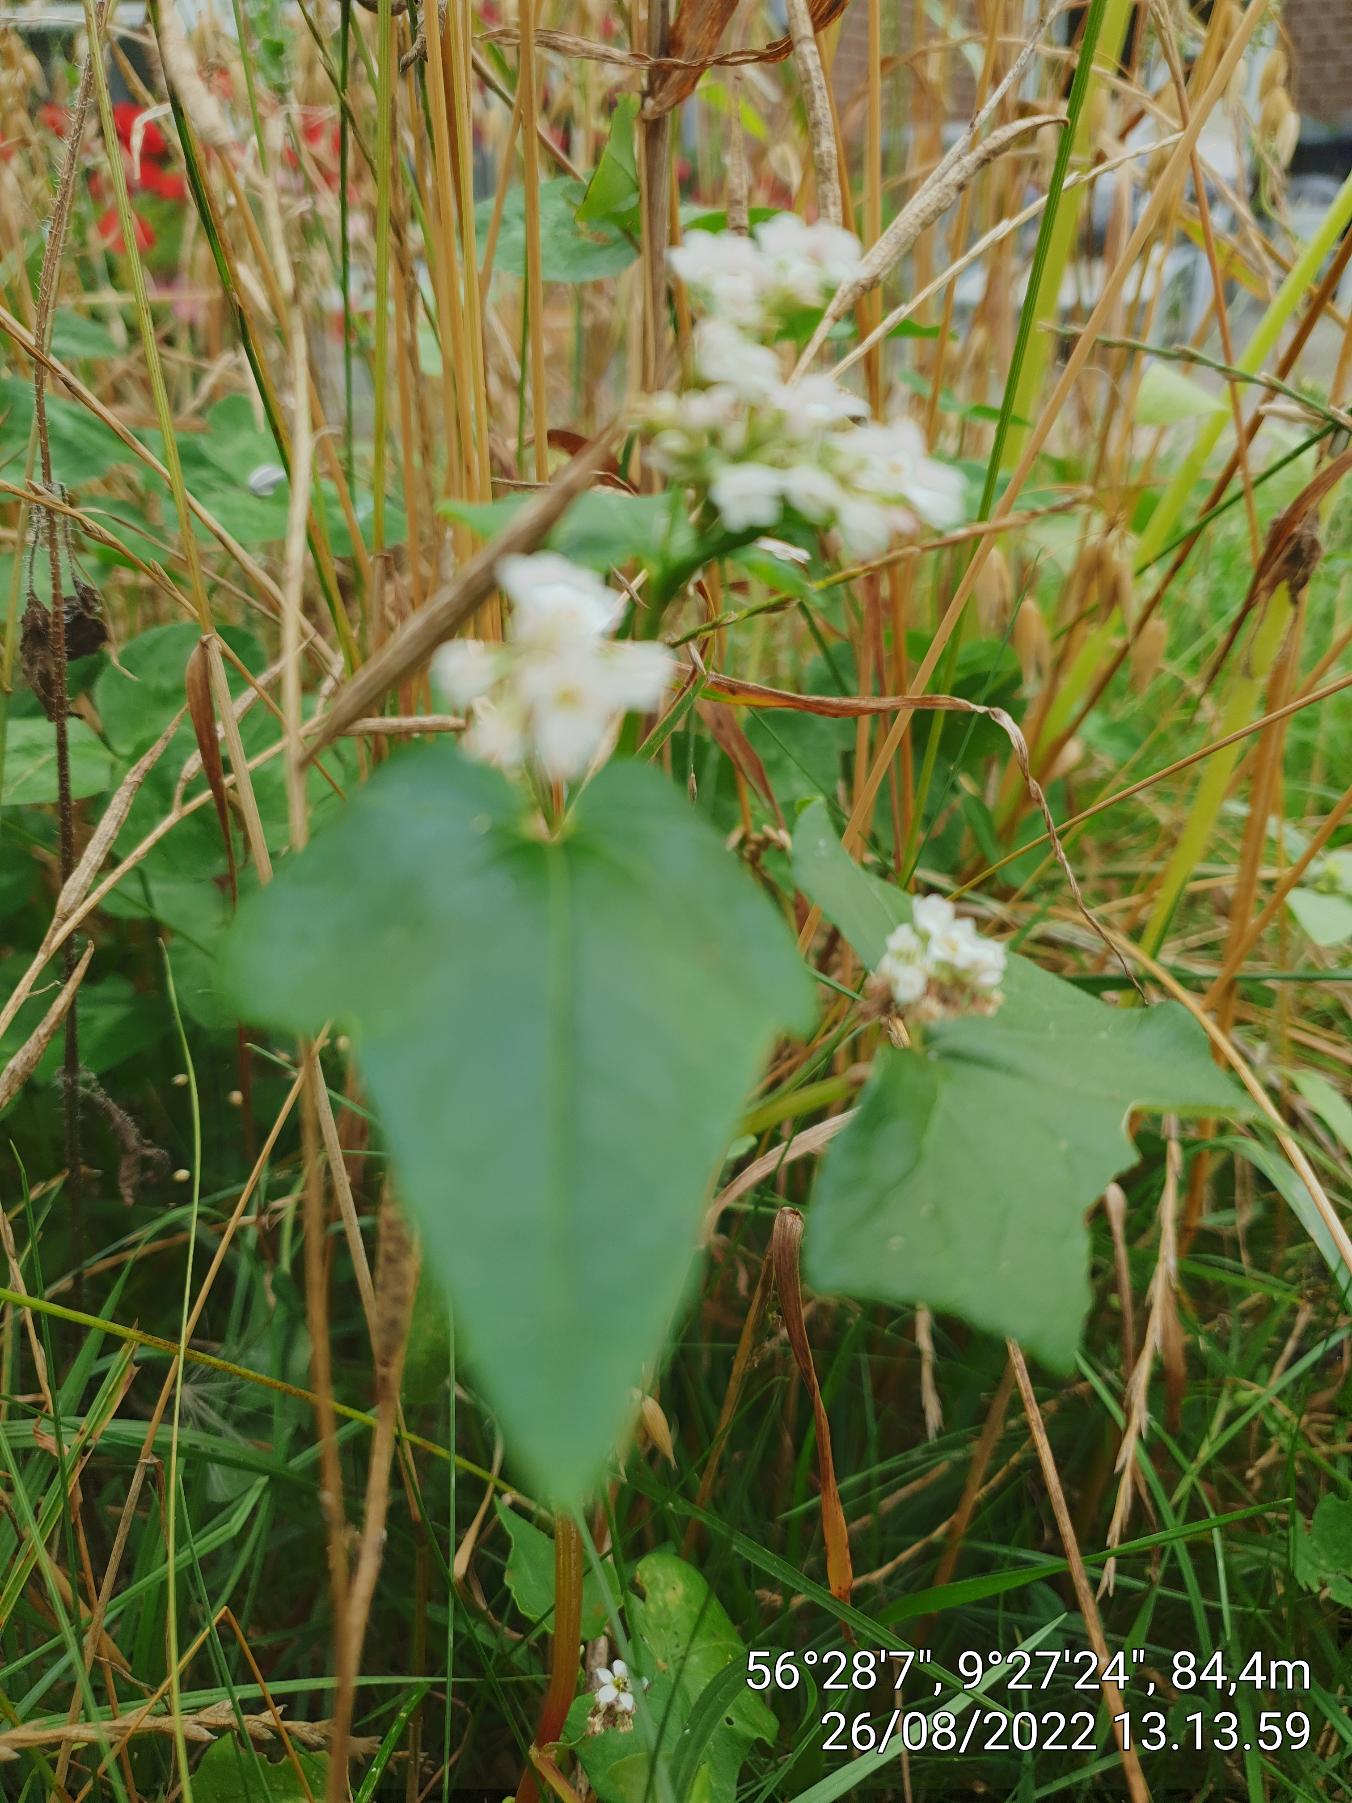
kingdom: Plantae
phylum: Tracheophyta
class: Magnoliopsida
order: Caryophyllales
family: Polygonaceae
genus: Fagopyrum
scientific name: Fagopyrum esculentum
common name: Almindelig boghvede
